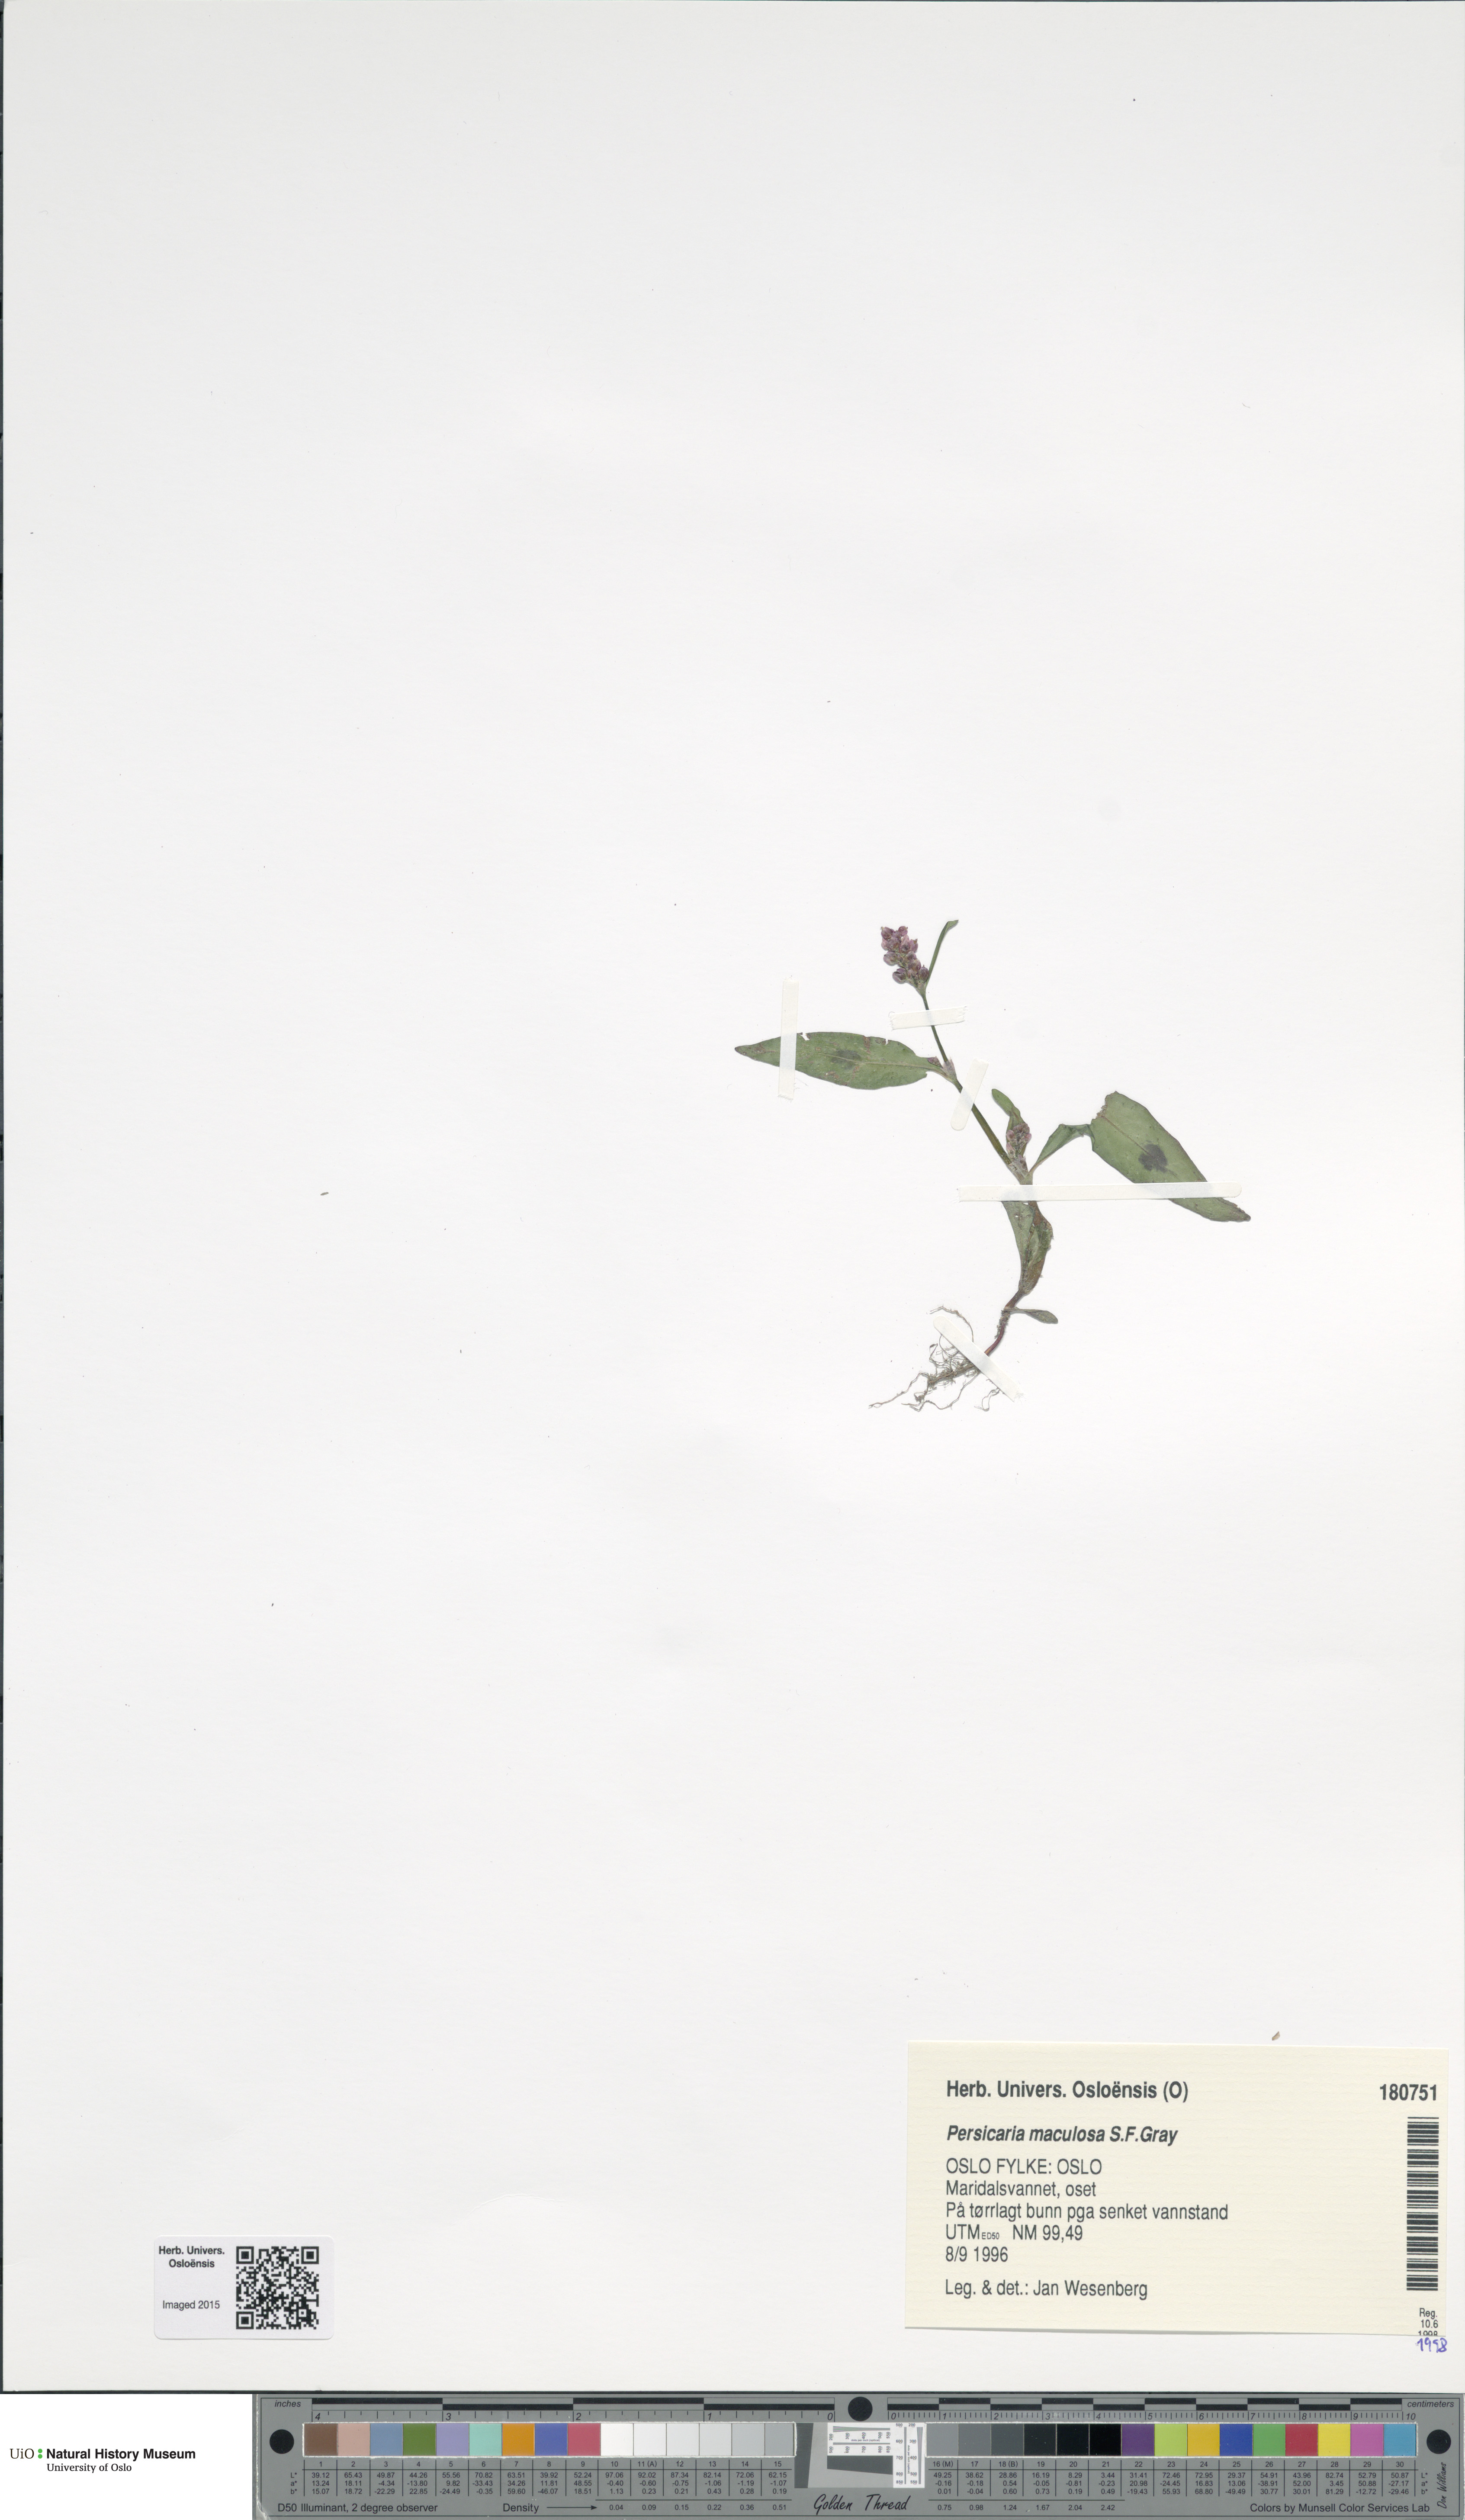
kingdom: Plantae
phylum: Tracheophyta
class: Magnoliopsida
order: Caryophyllales
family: Polygonaceae
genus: Persicaria
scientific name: Persicaria maculosa
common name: Redshank
